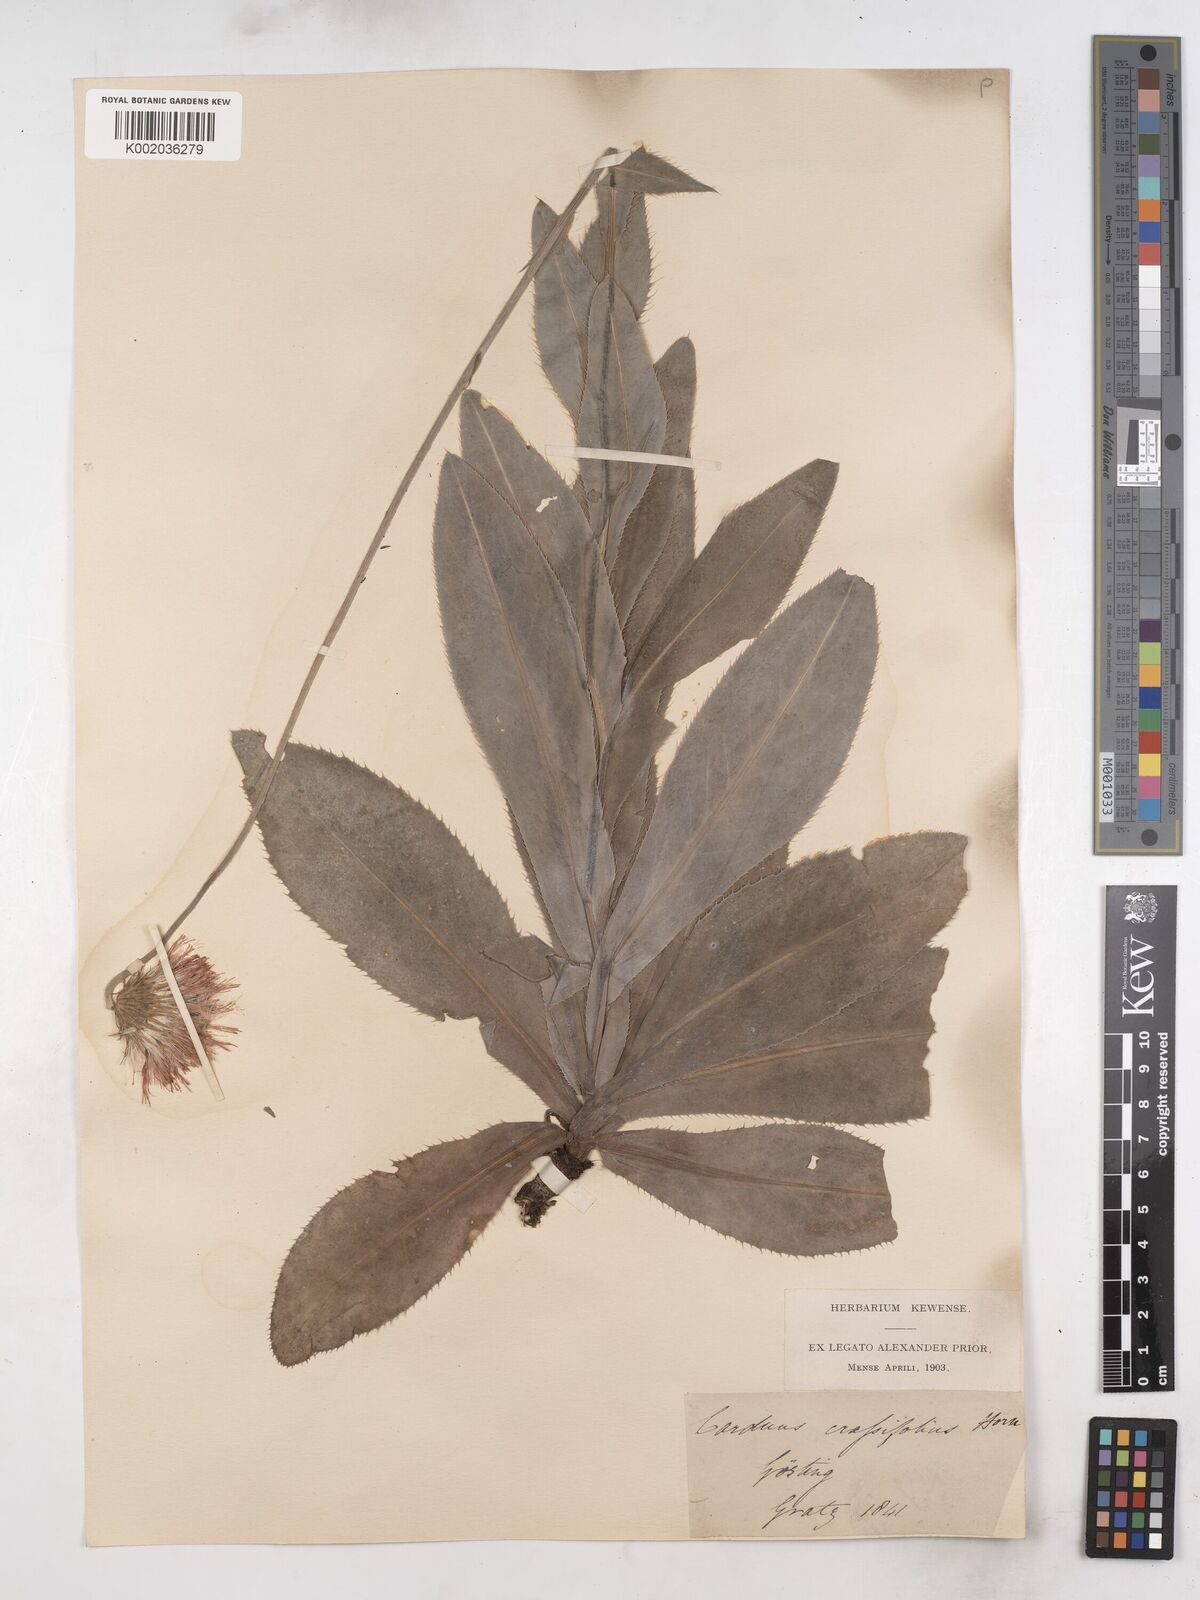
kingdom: Plantae
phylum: Tracheophyta
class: Magnoliopsida
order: Asterales
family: Asteraceae
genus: Carduus
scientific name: Carduus defloratus
